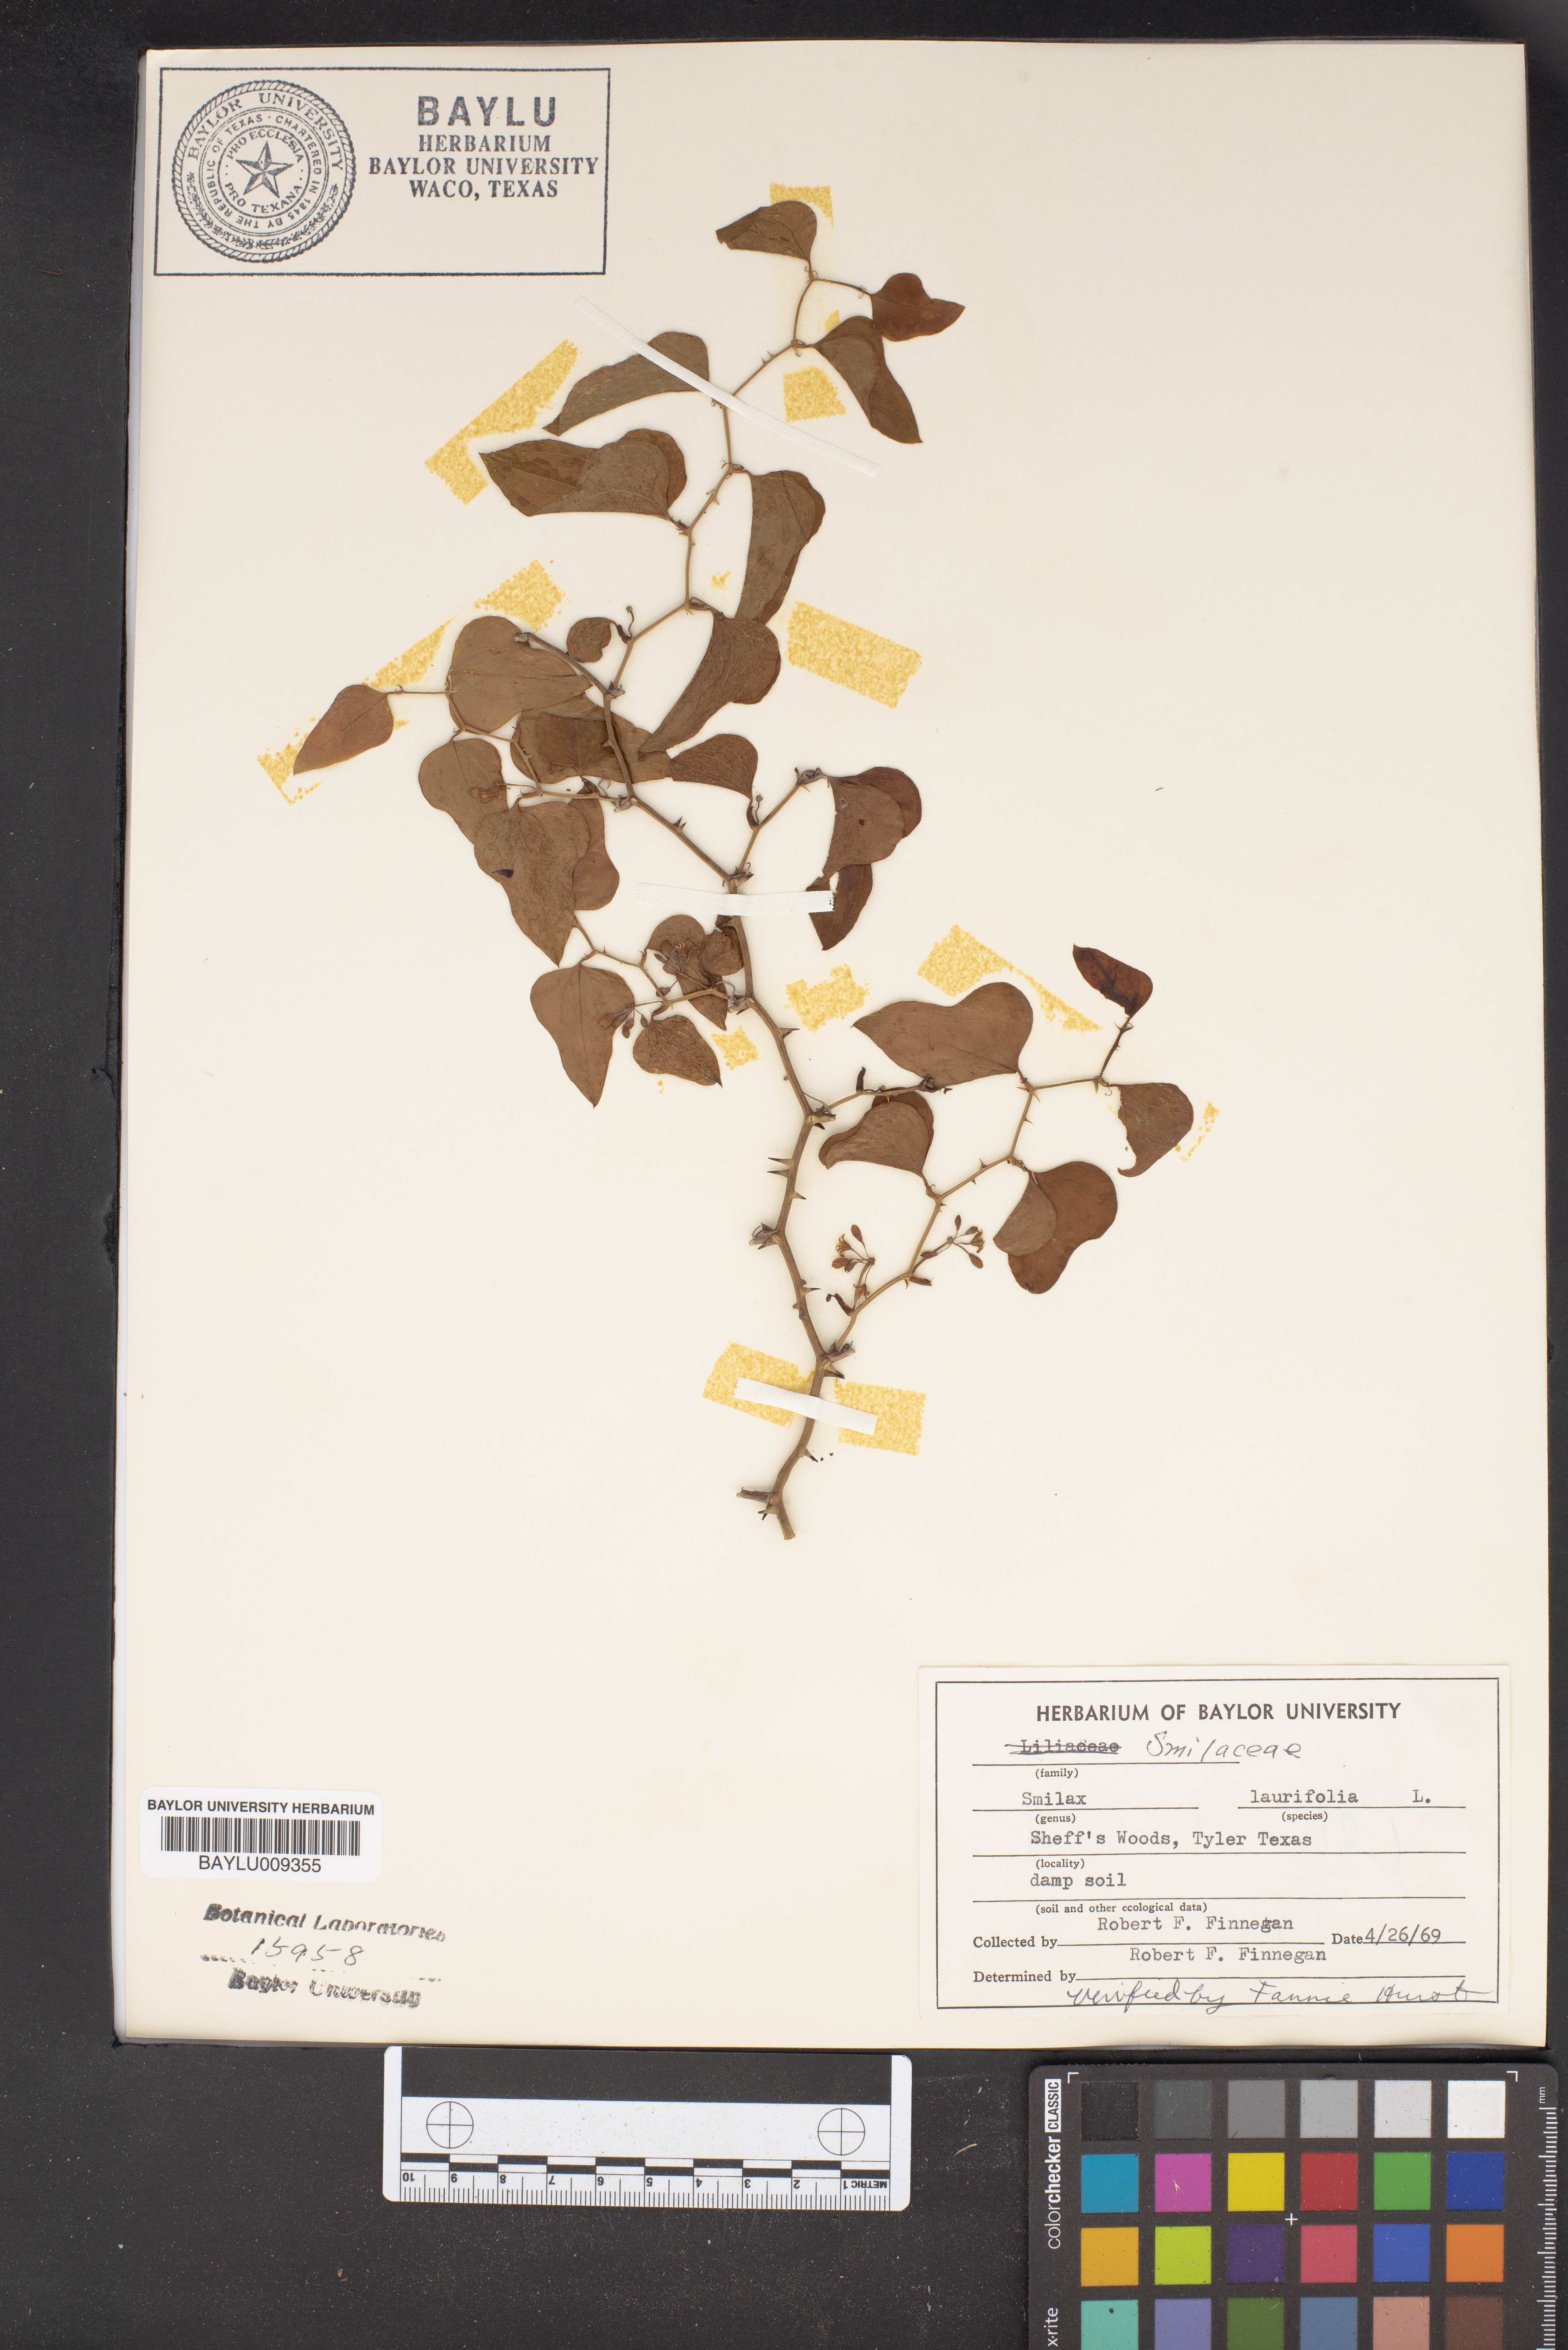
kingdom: Plantae
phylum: Tracheophyta
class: Liliopsida
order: Liliales
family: Smilacaceae
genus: Smilax
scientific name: Smilax laurifolia
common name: Bamboovine
